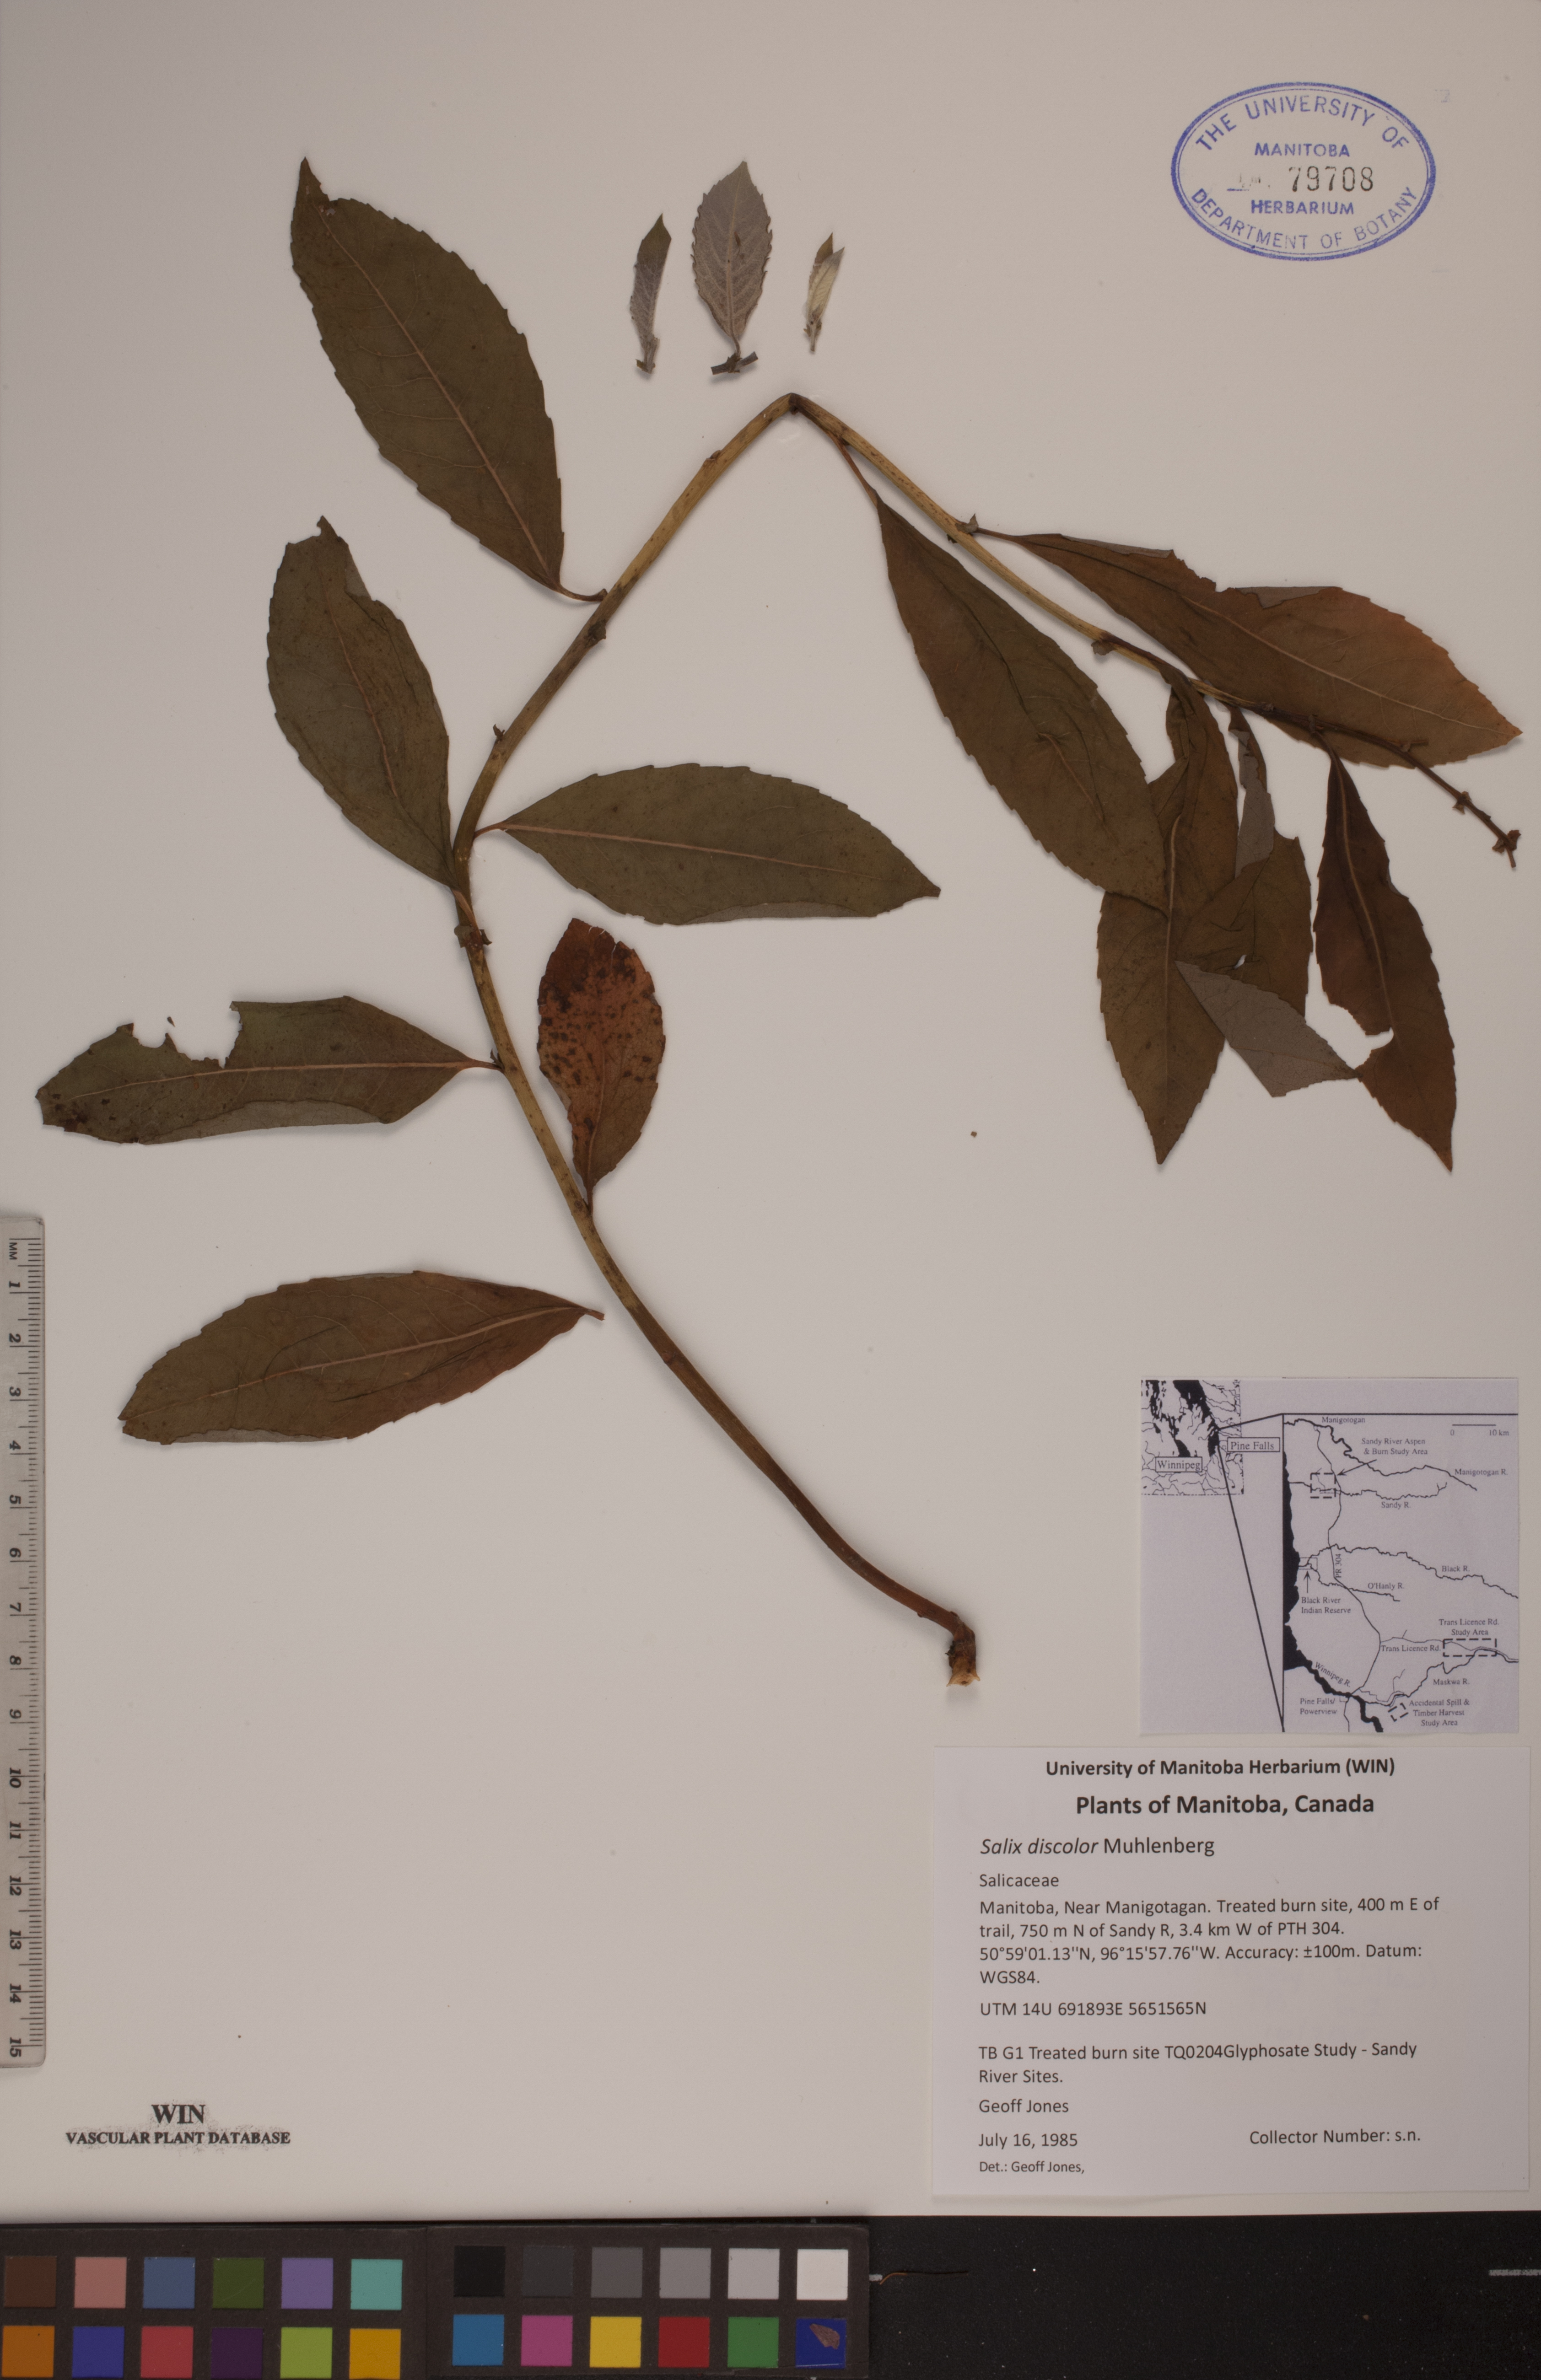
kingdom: Plantae
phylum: Tracheophyta
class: Magnoliopsida
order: Malpighiales
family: Salicaceae
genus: Salix
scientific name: Salix discolor
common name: Glaucous willow
